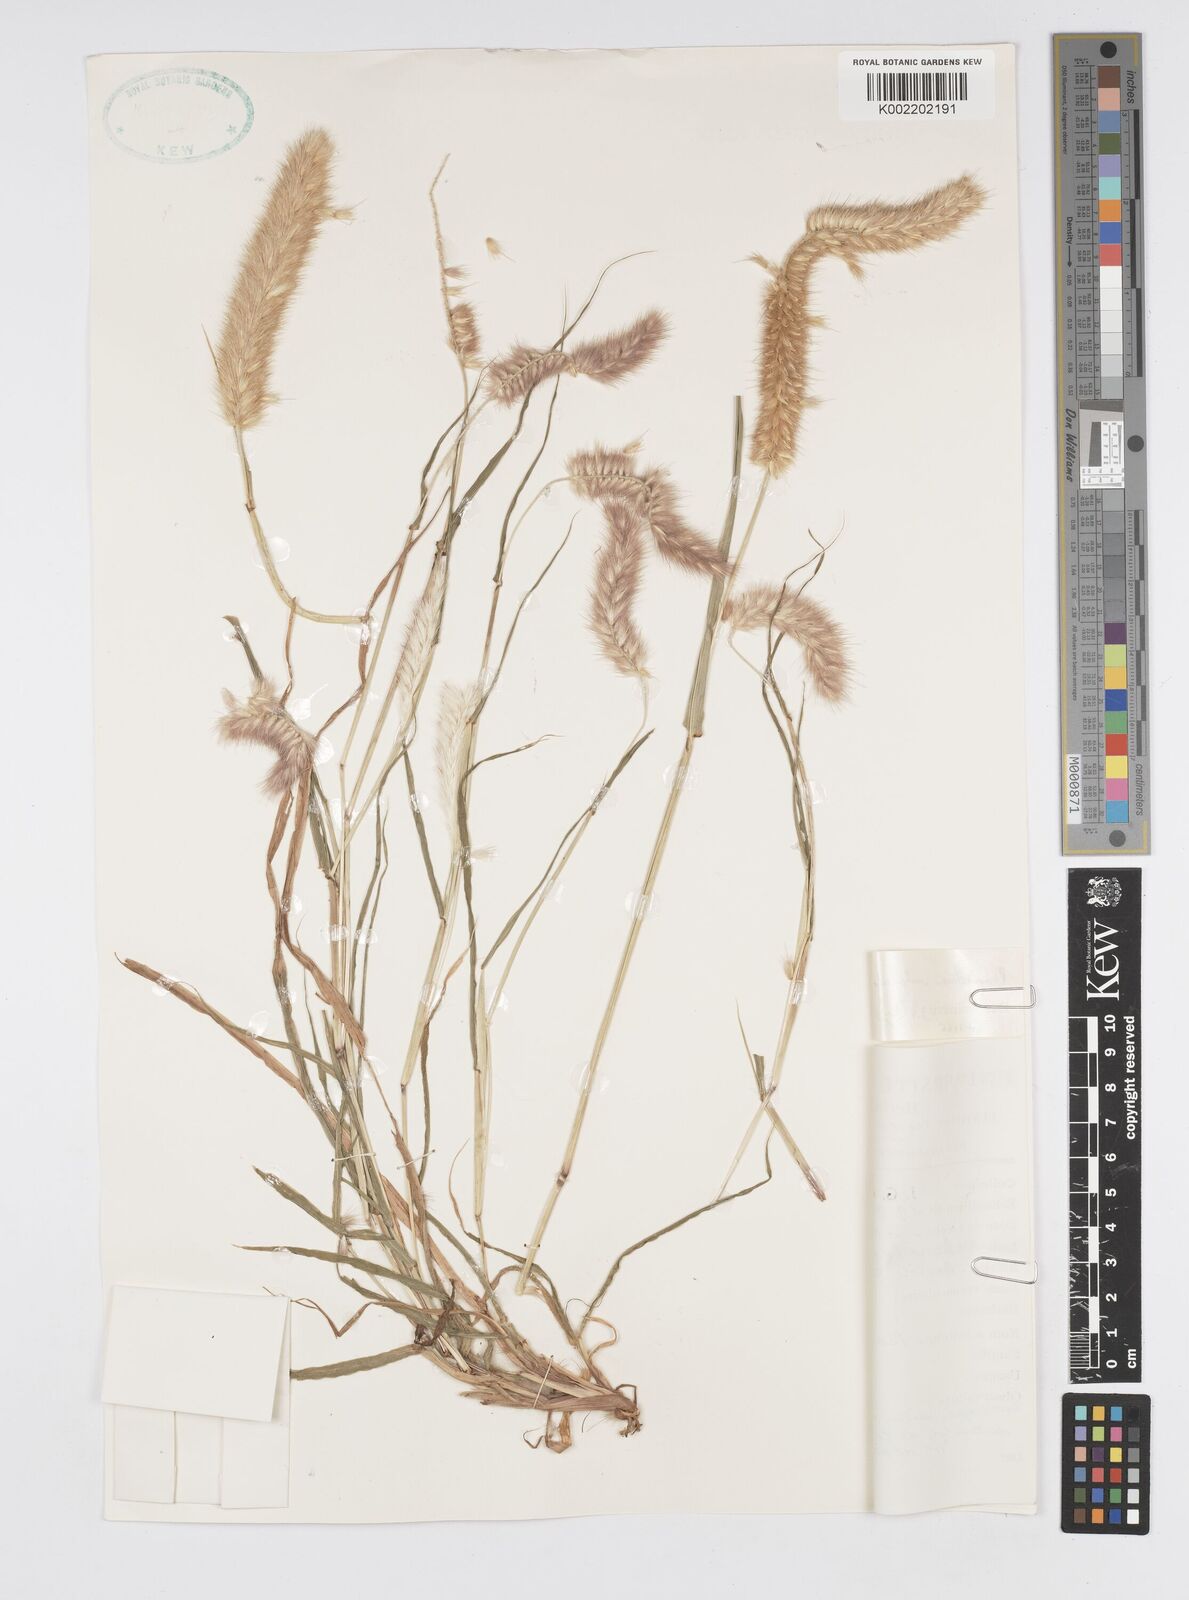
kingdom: Plantae
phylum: Tracheophyta
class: Liliopsida
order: Poales
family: Poaceae
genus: Cenchrus
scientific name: Cenchrus violaceus
